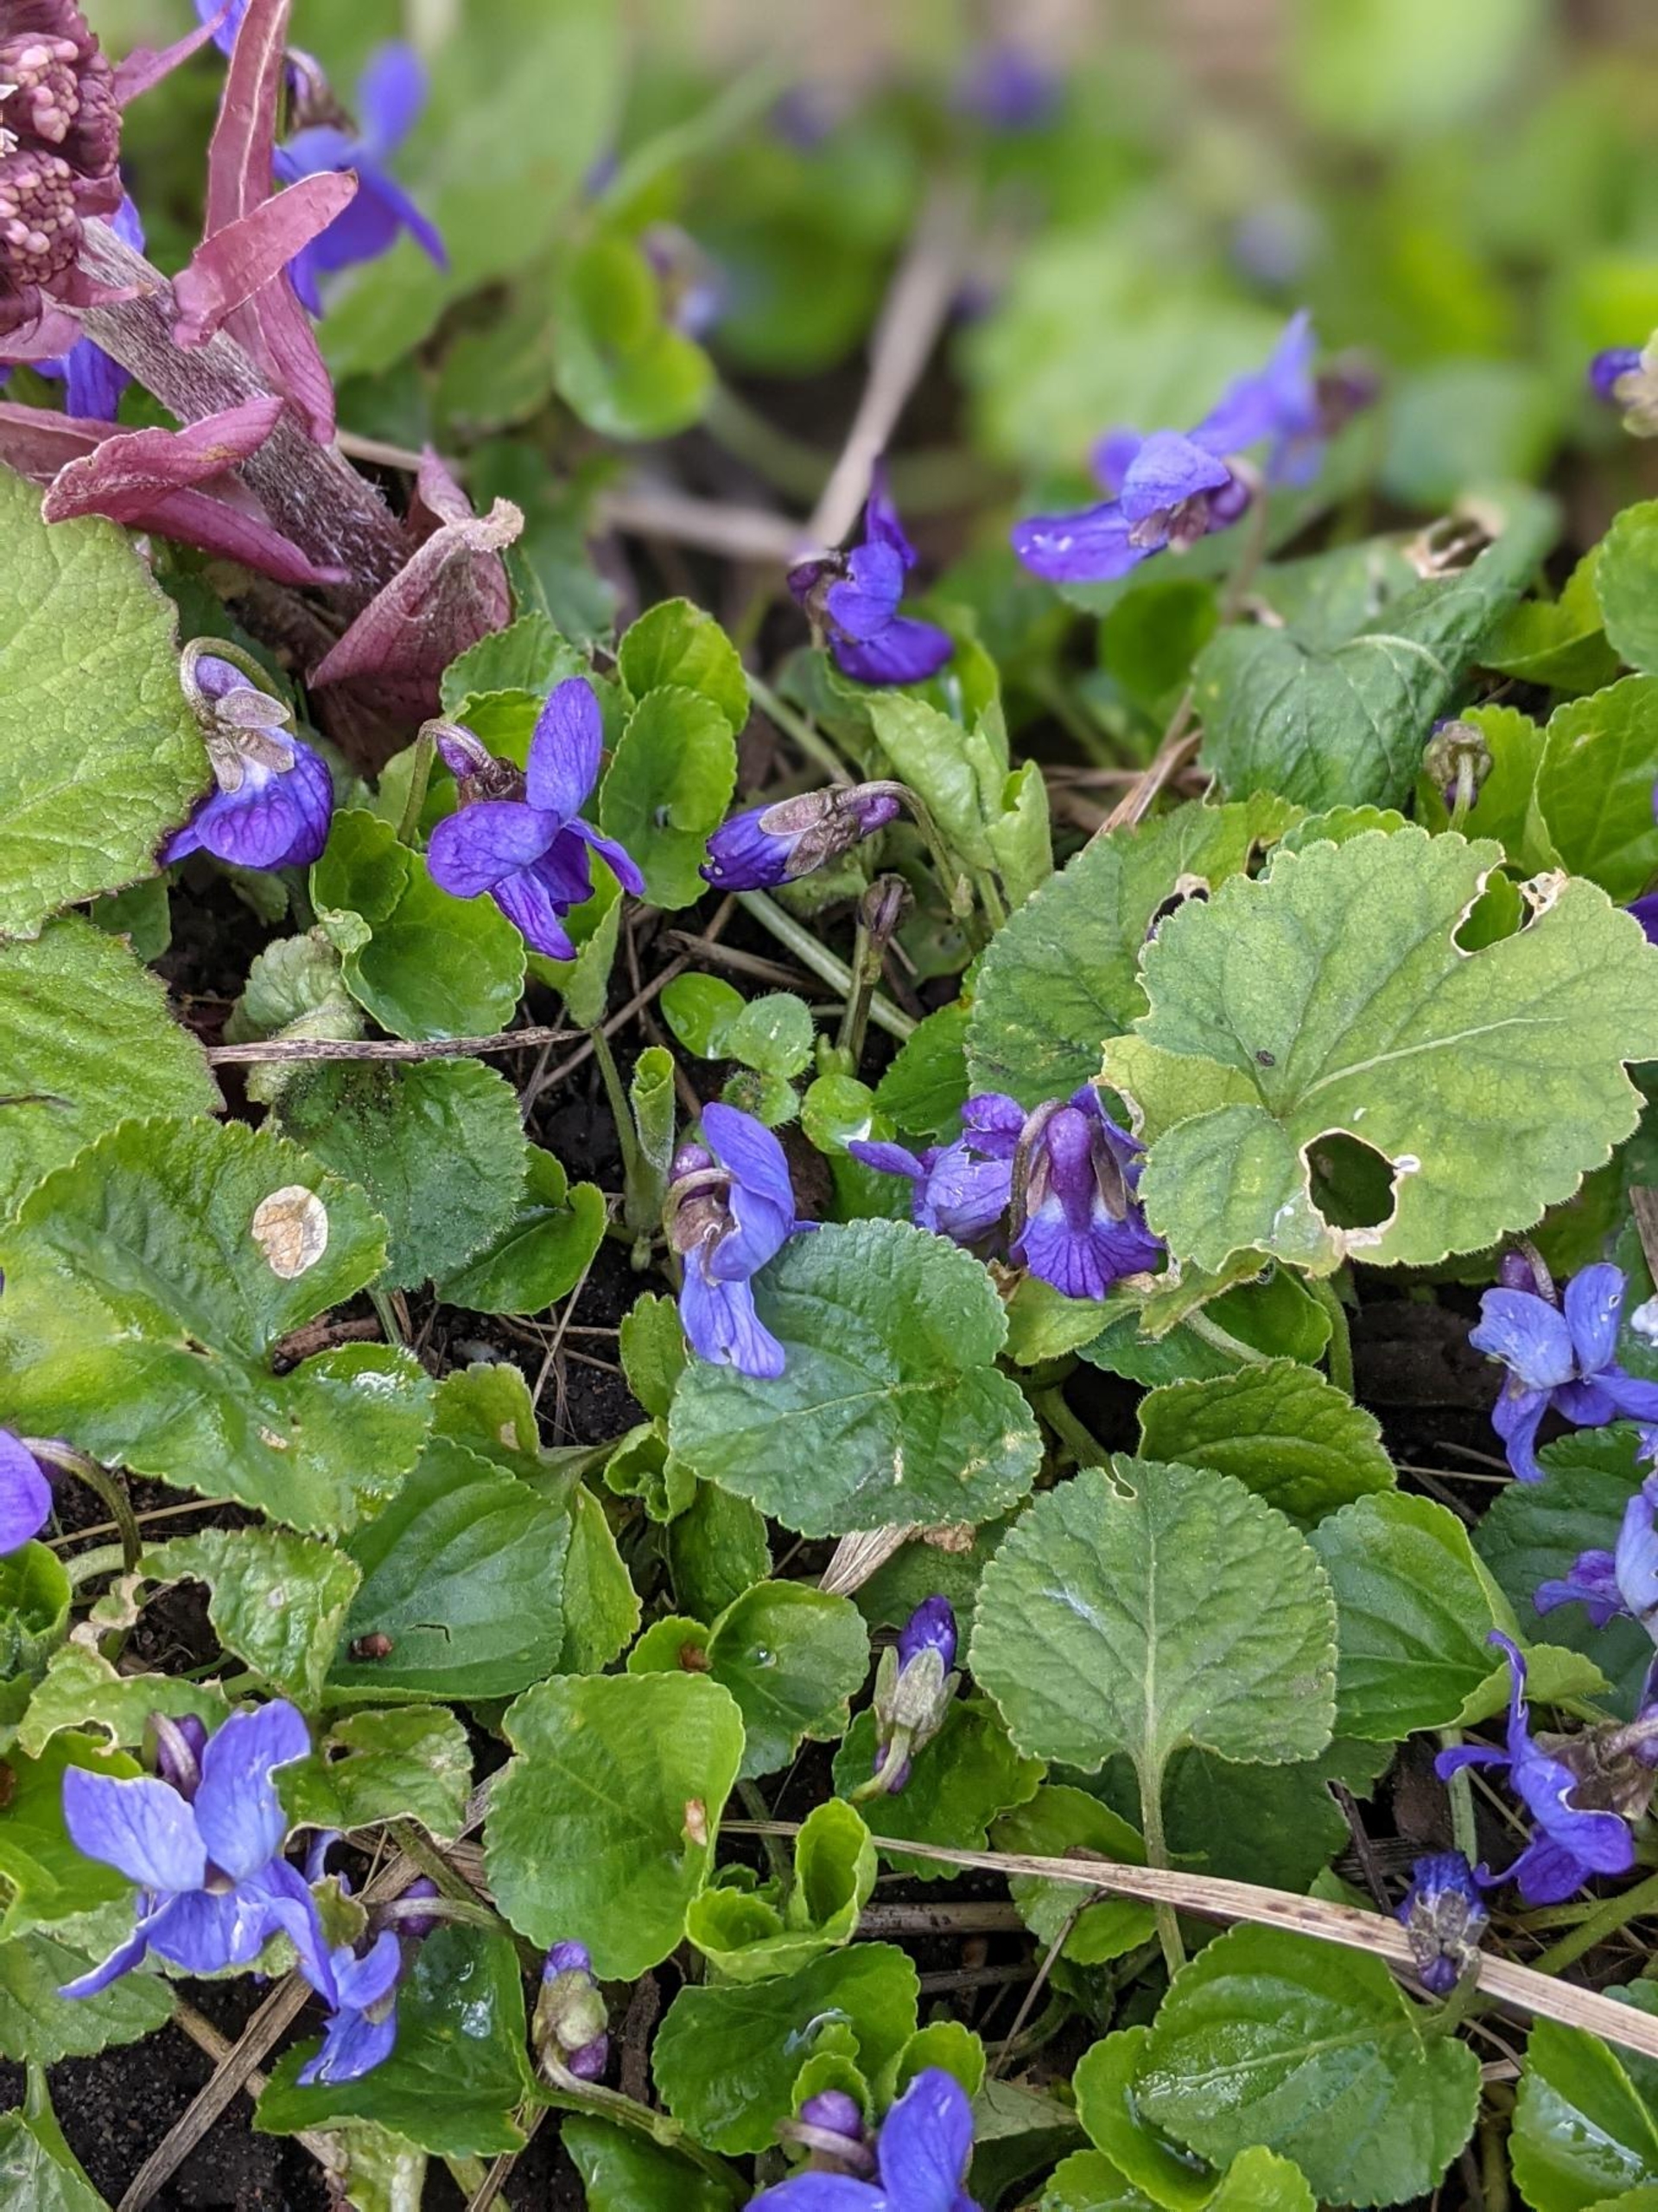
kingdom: Plantae
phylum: Tracheophyta
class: Magnoliopsida
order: Malpighiales
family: Violaceae
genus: Viola
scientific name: Viola odorata
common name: Marts-viol
